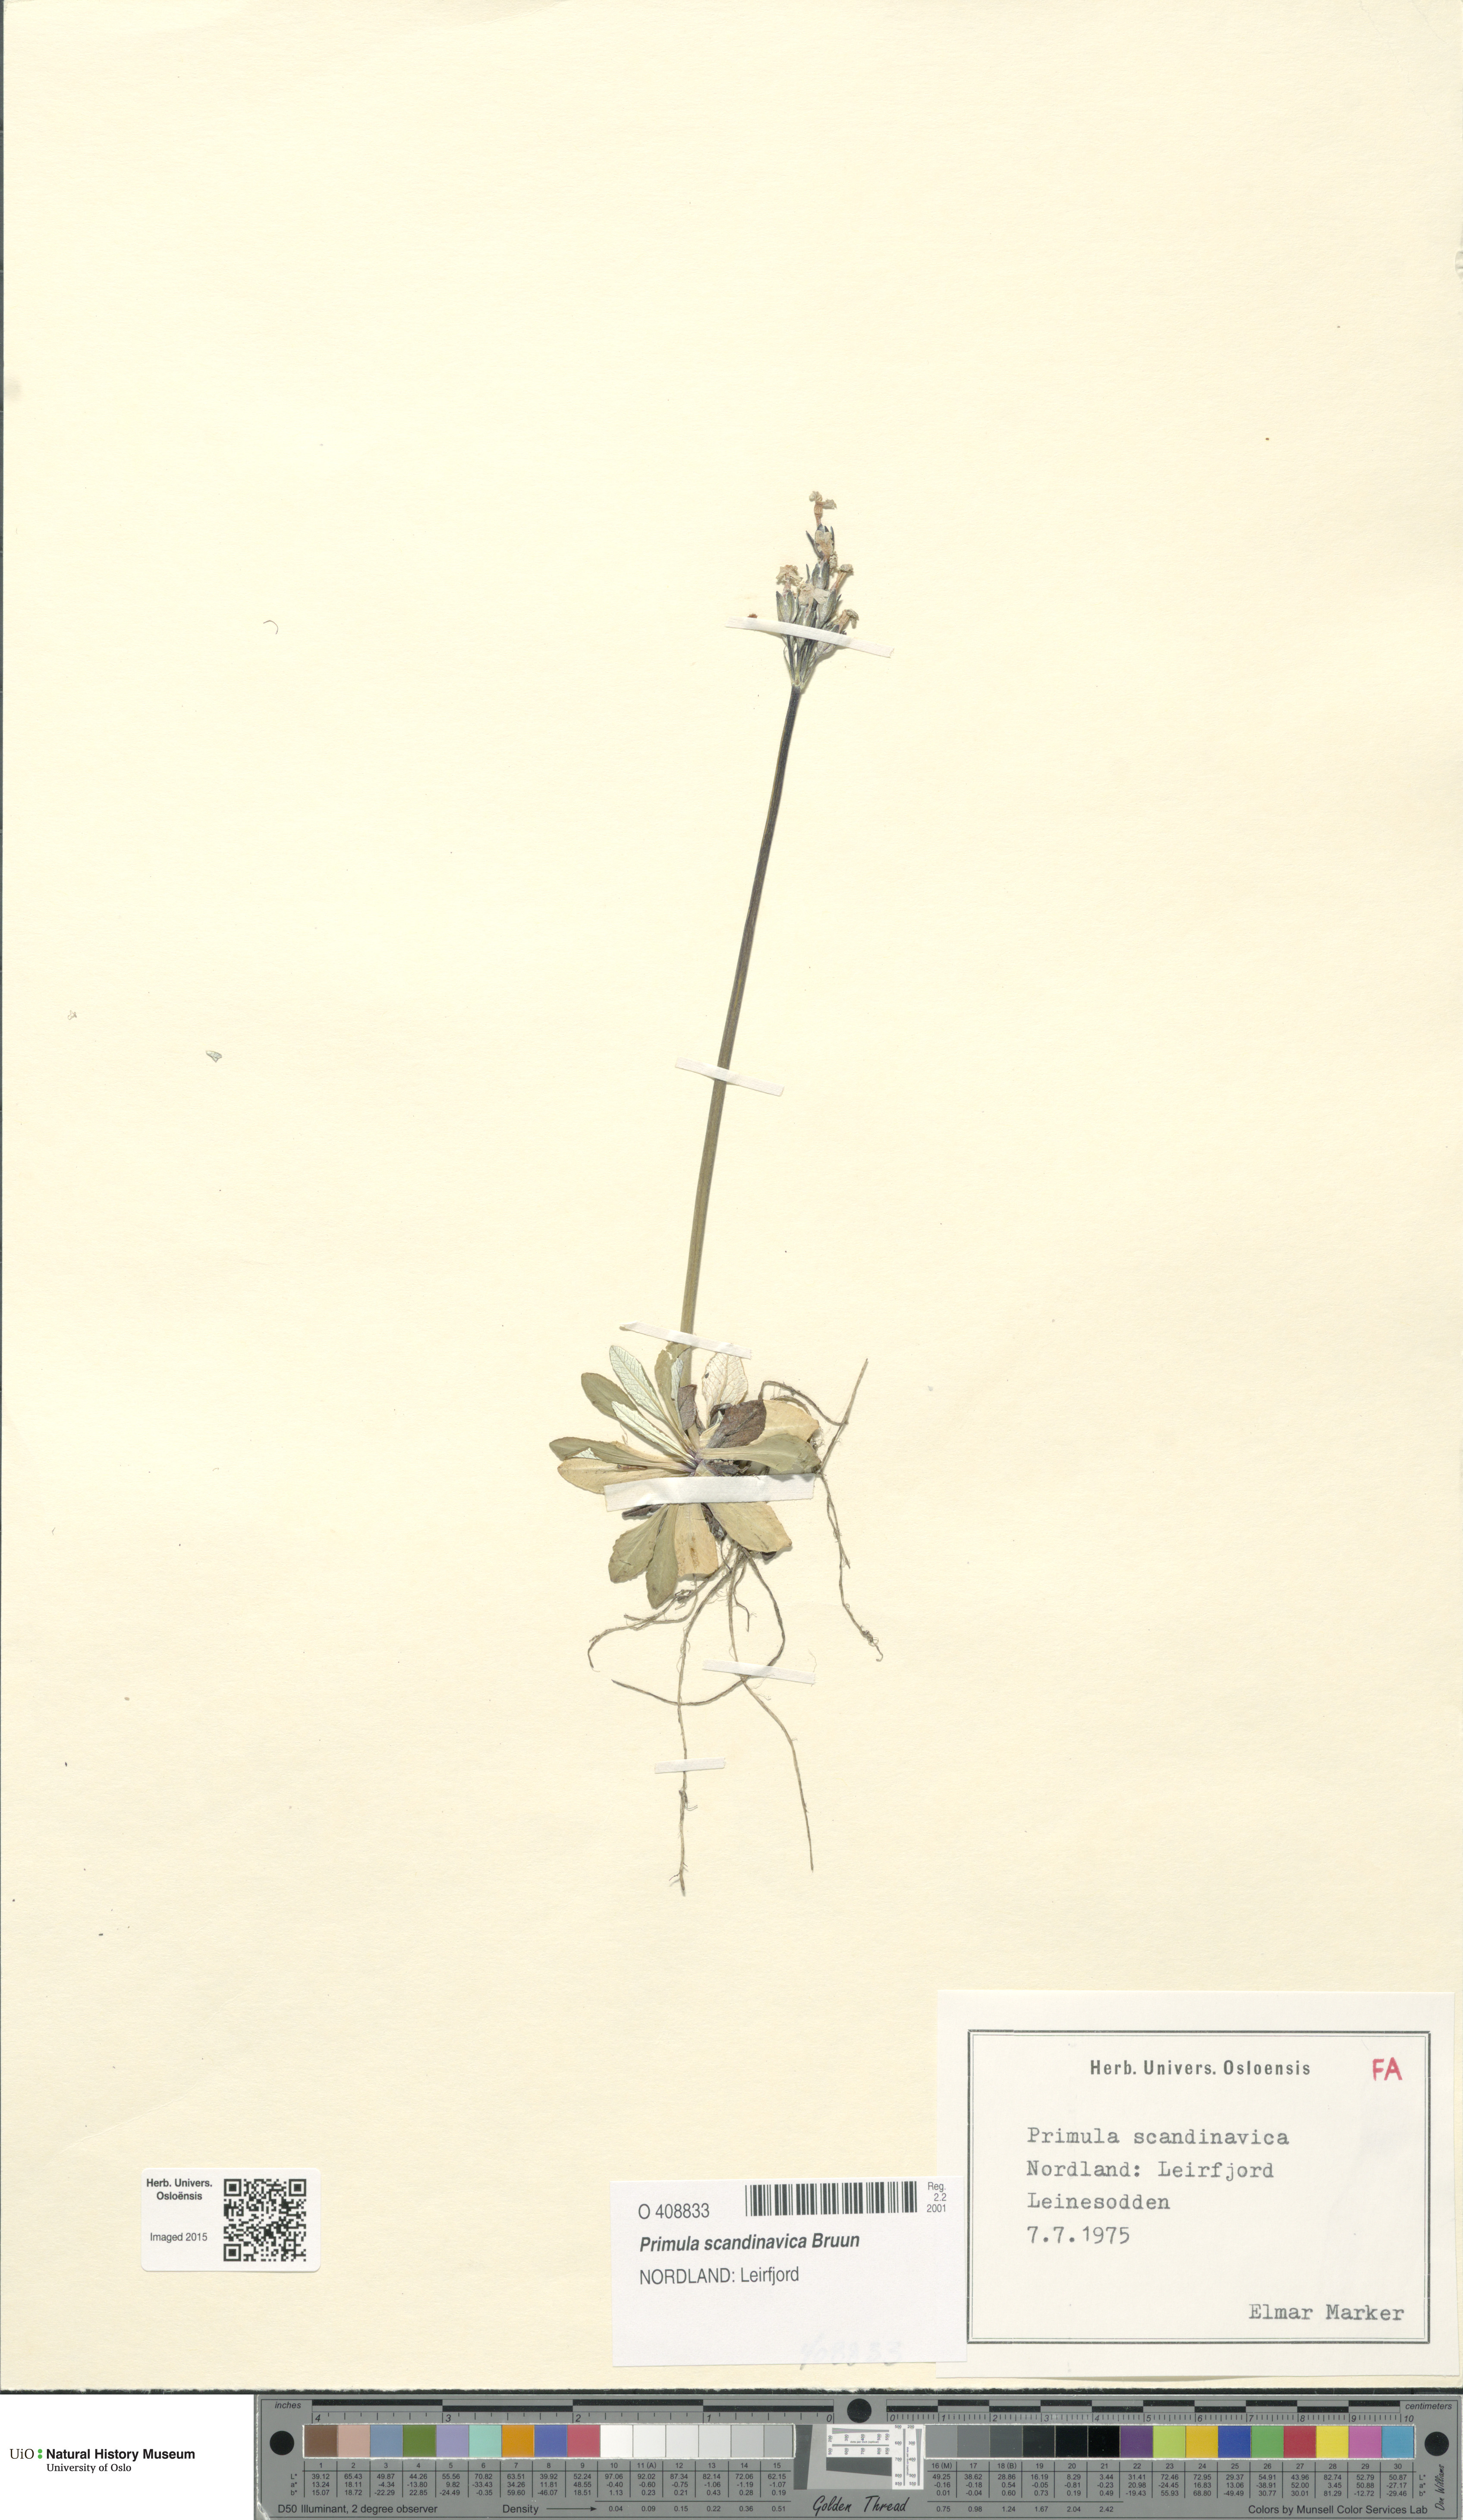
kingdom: Plantae
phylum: Tracheophyta
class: Magnoliopsida
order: Ericales
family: Primulaceae
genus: Primula
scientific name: Primula scandinavica
